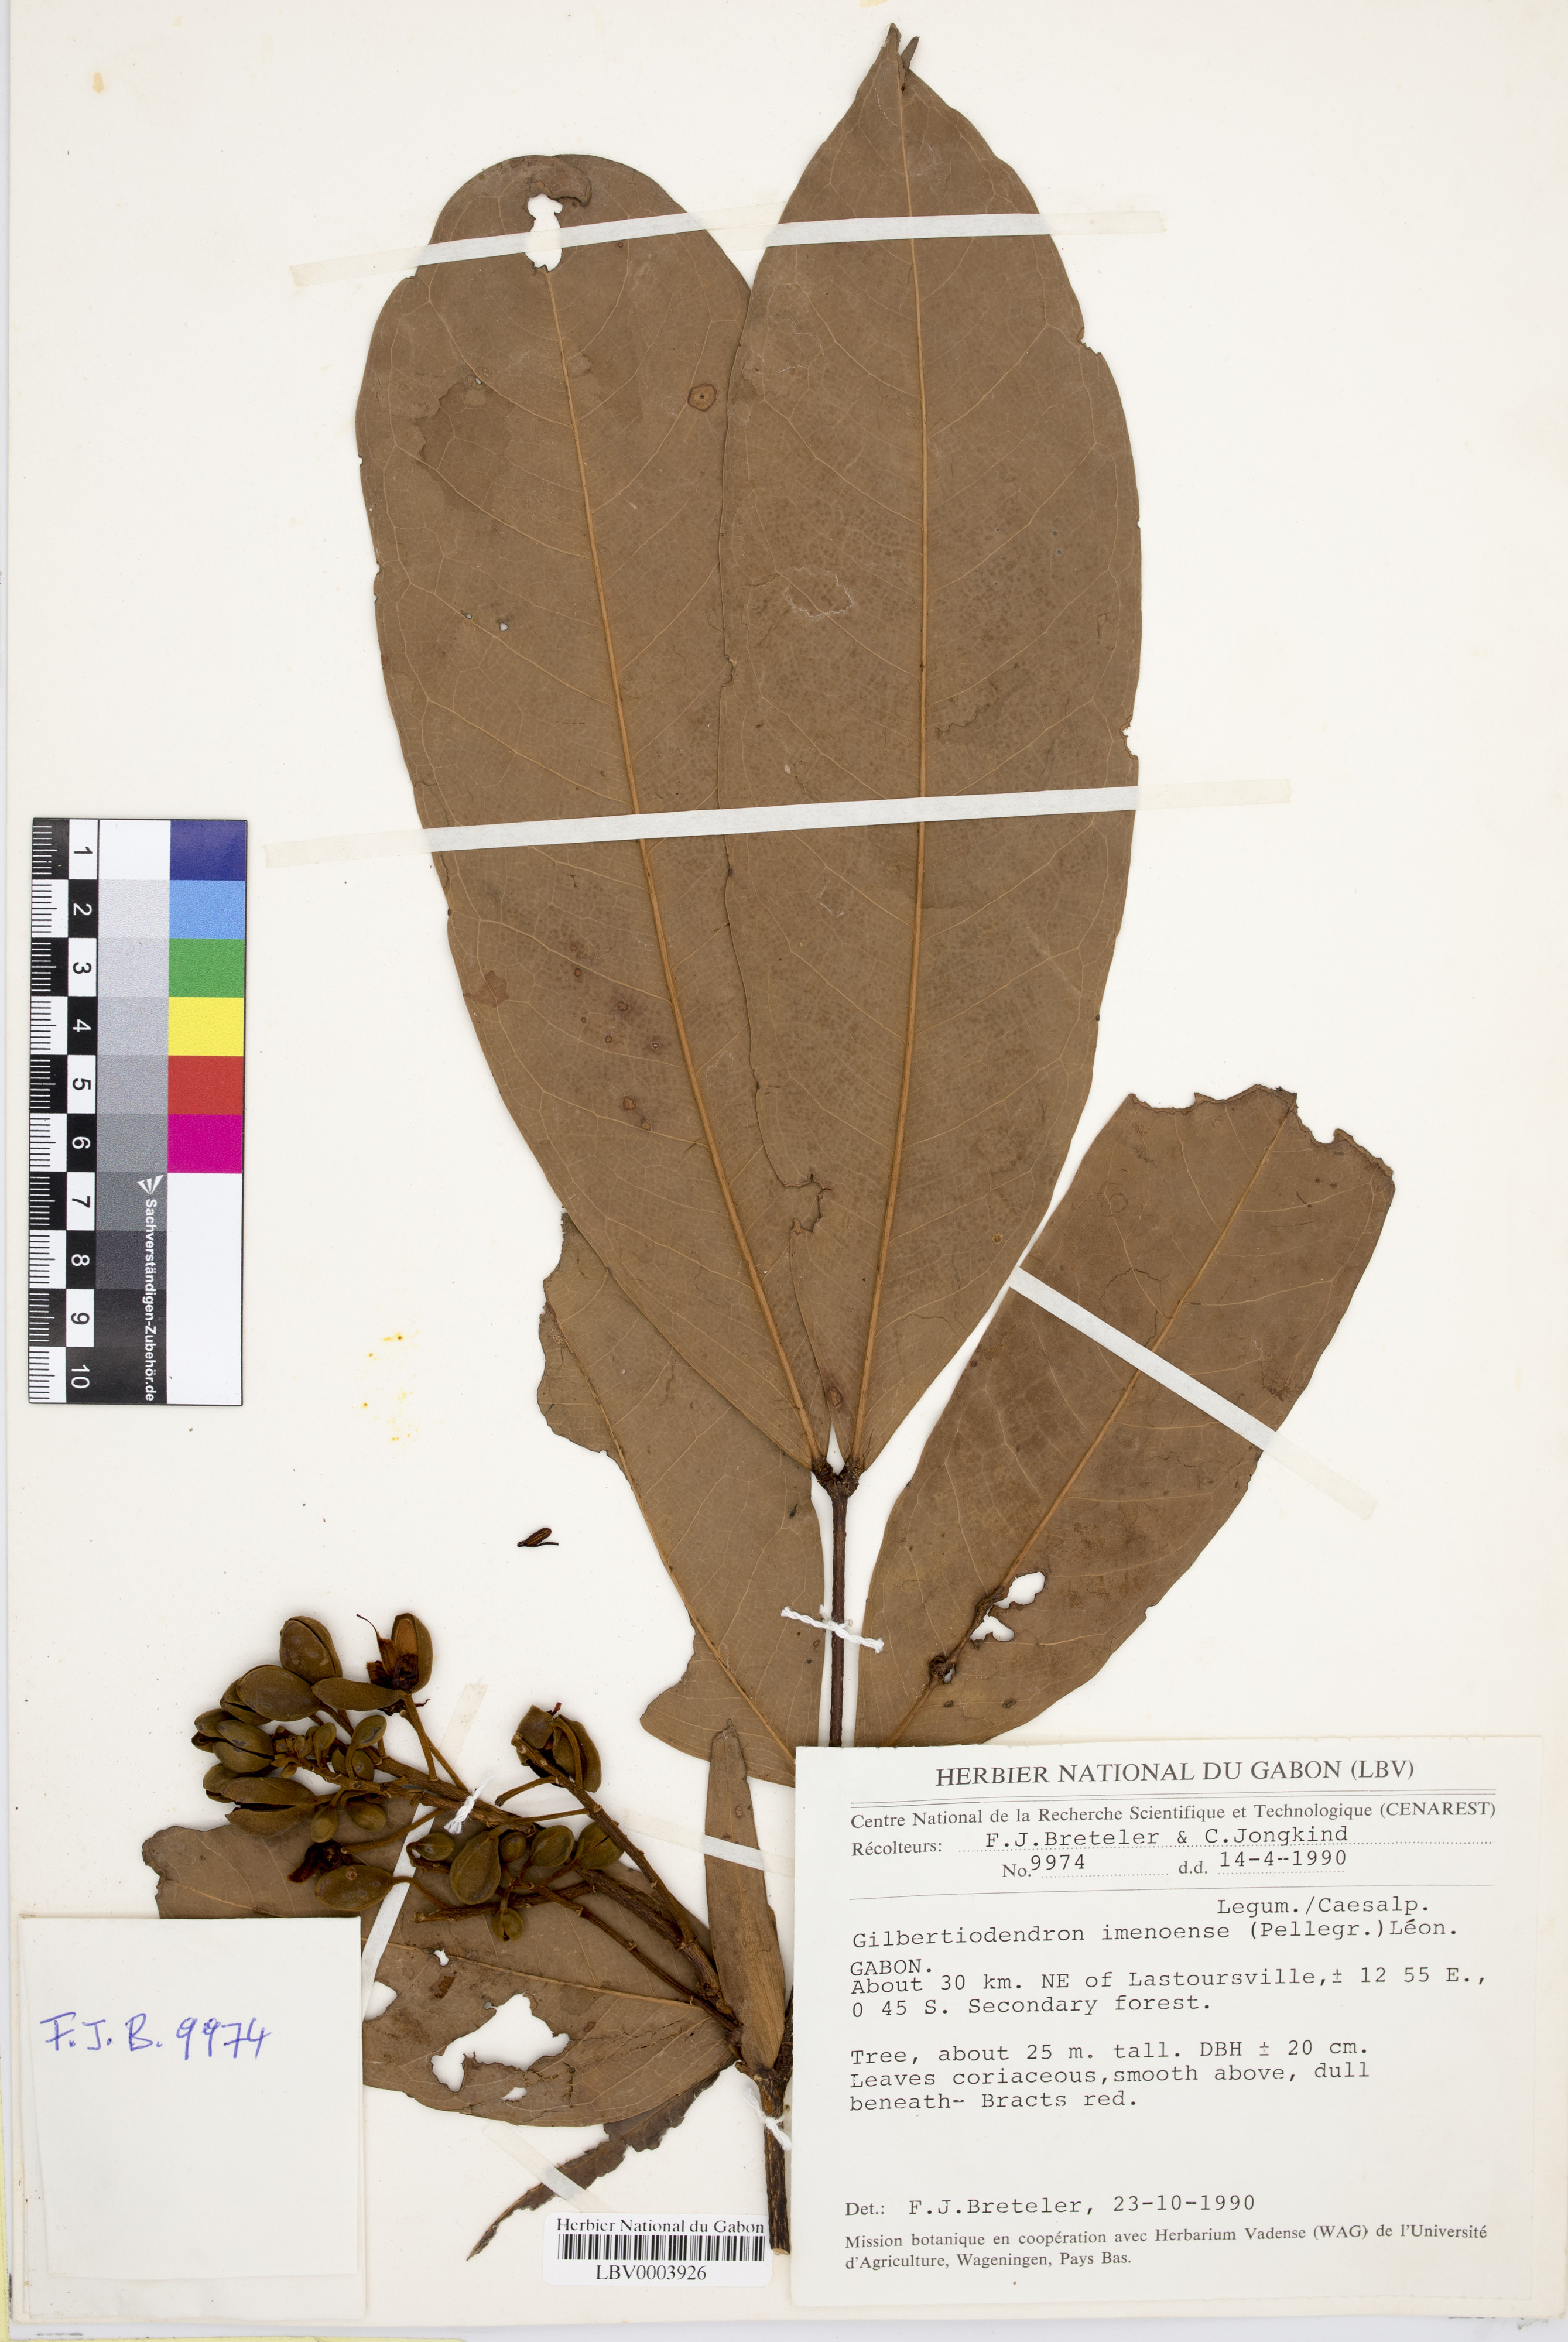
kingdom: Plantae
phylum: Tracheophyta
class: Magnoliopsida
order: Fabales
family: Fabaceae
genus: Gilbertiodendron
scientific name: Gilbertiodendron imenoense
